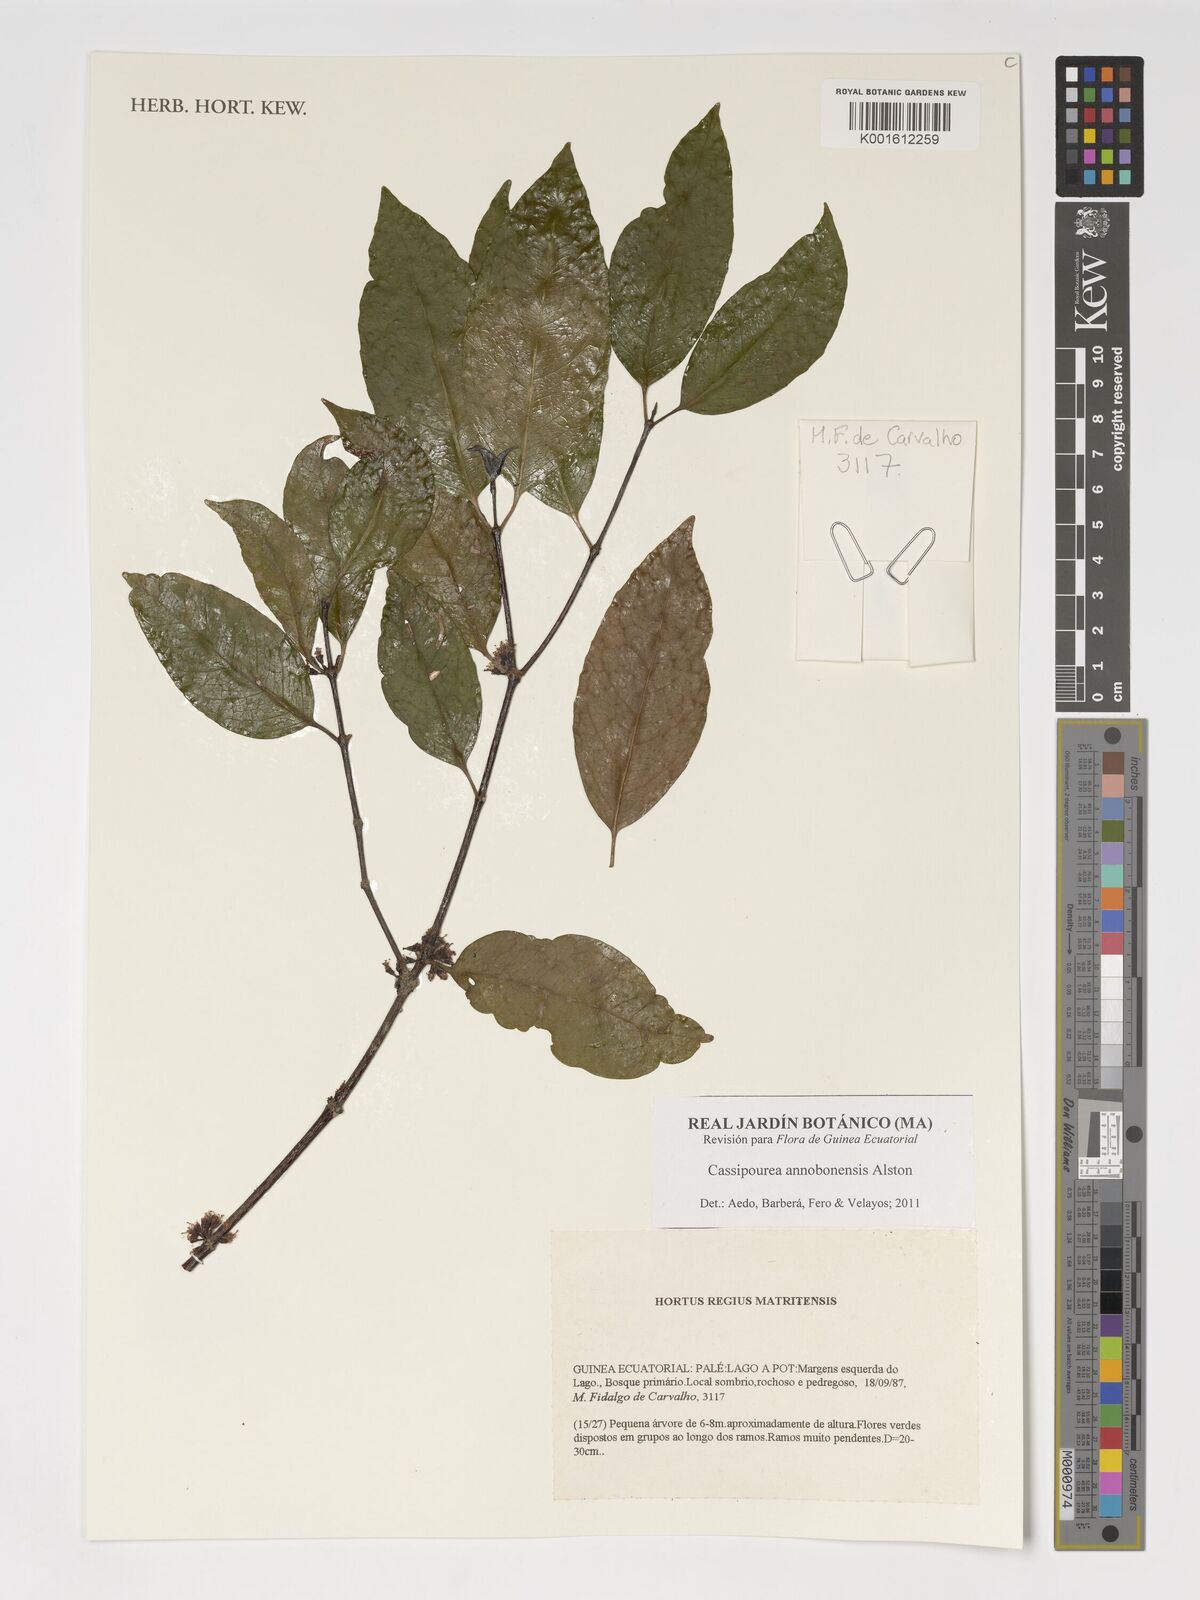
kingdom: Plantae
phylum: Tracheophyta
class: Magnoliopsida
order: Malpighiales
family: Rhizophoraceae
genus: Cassipourea
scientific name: Cassipourea annobonensis
